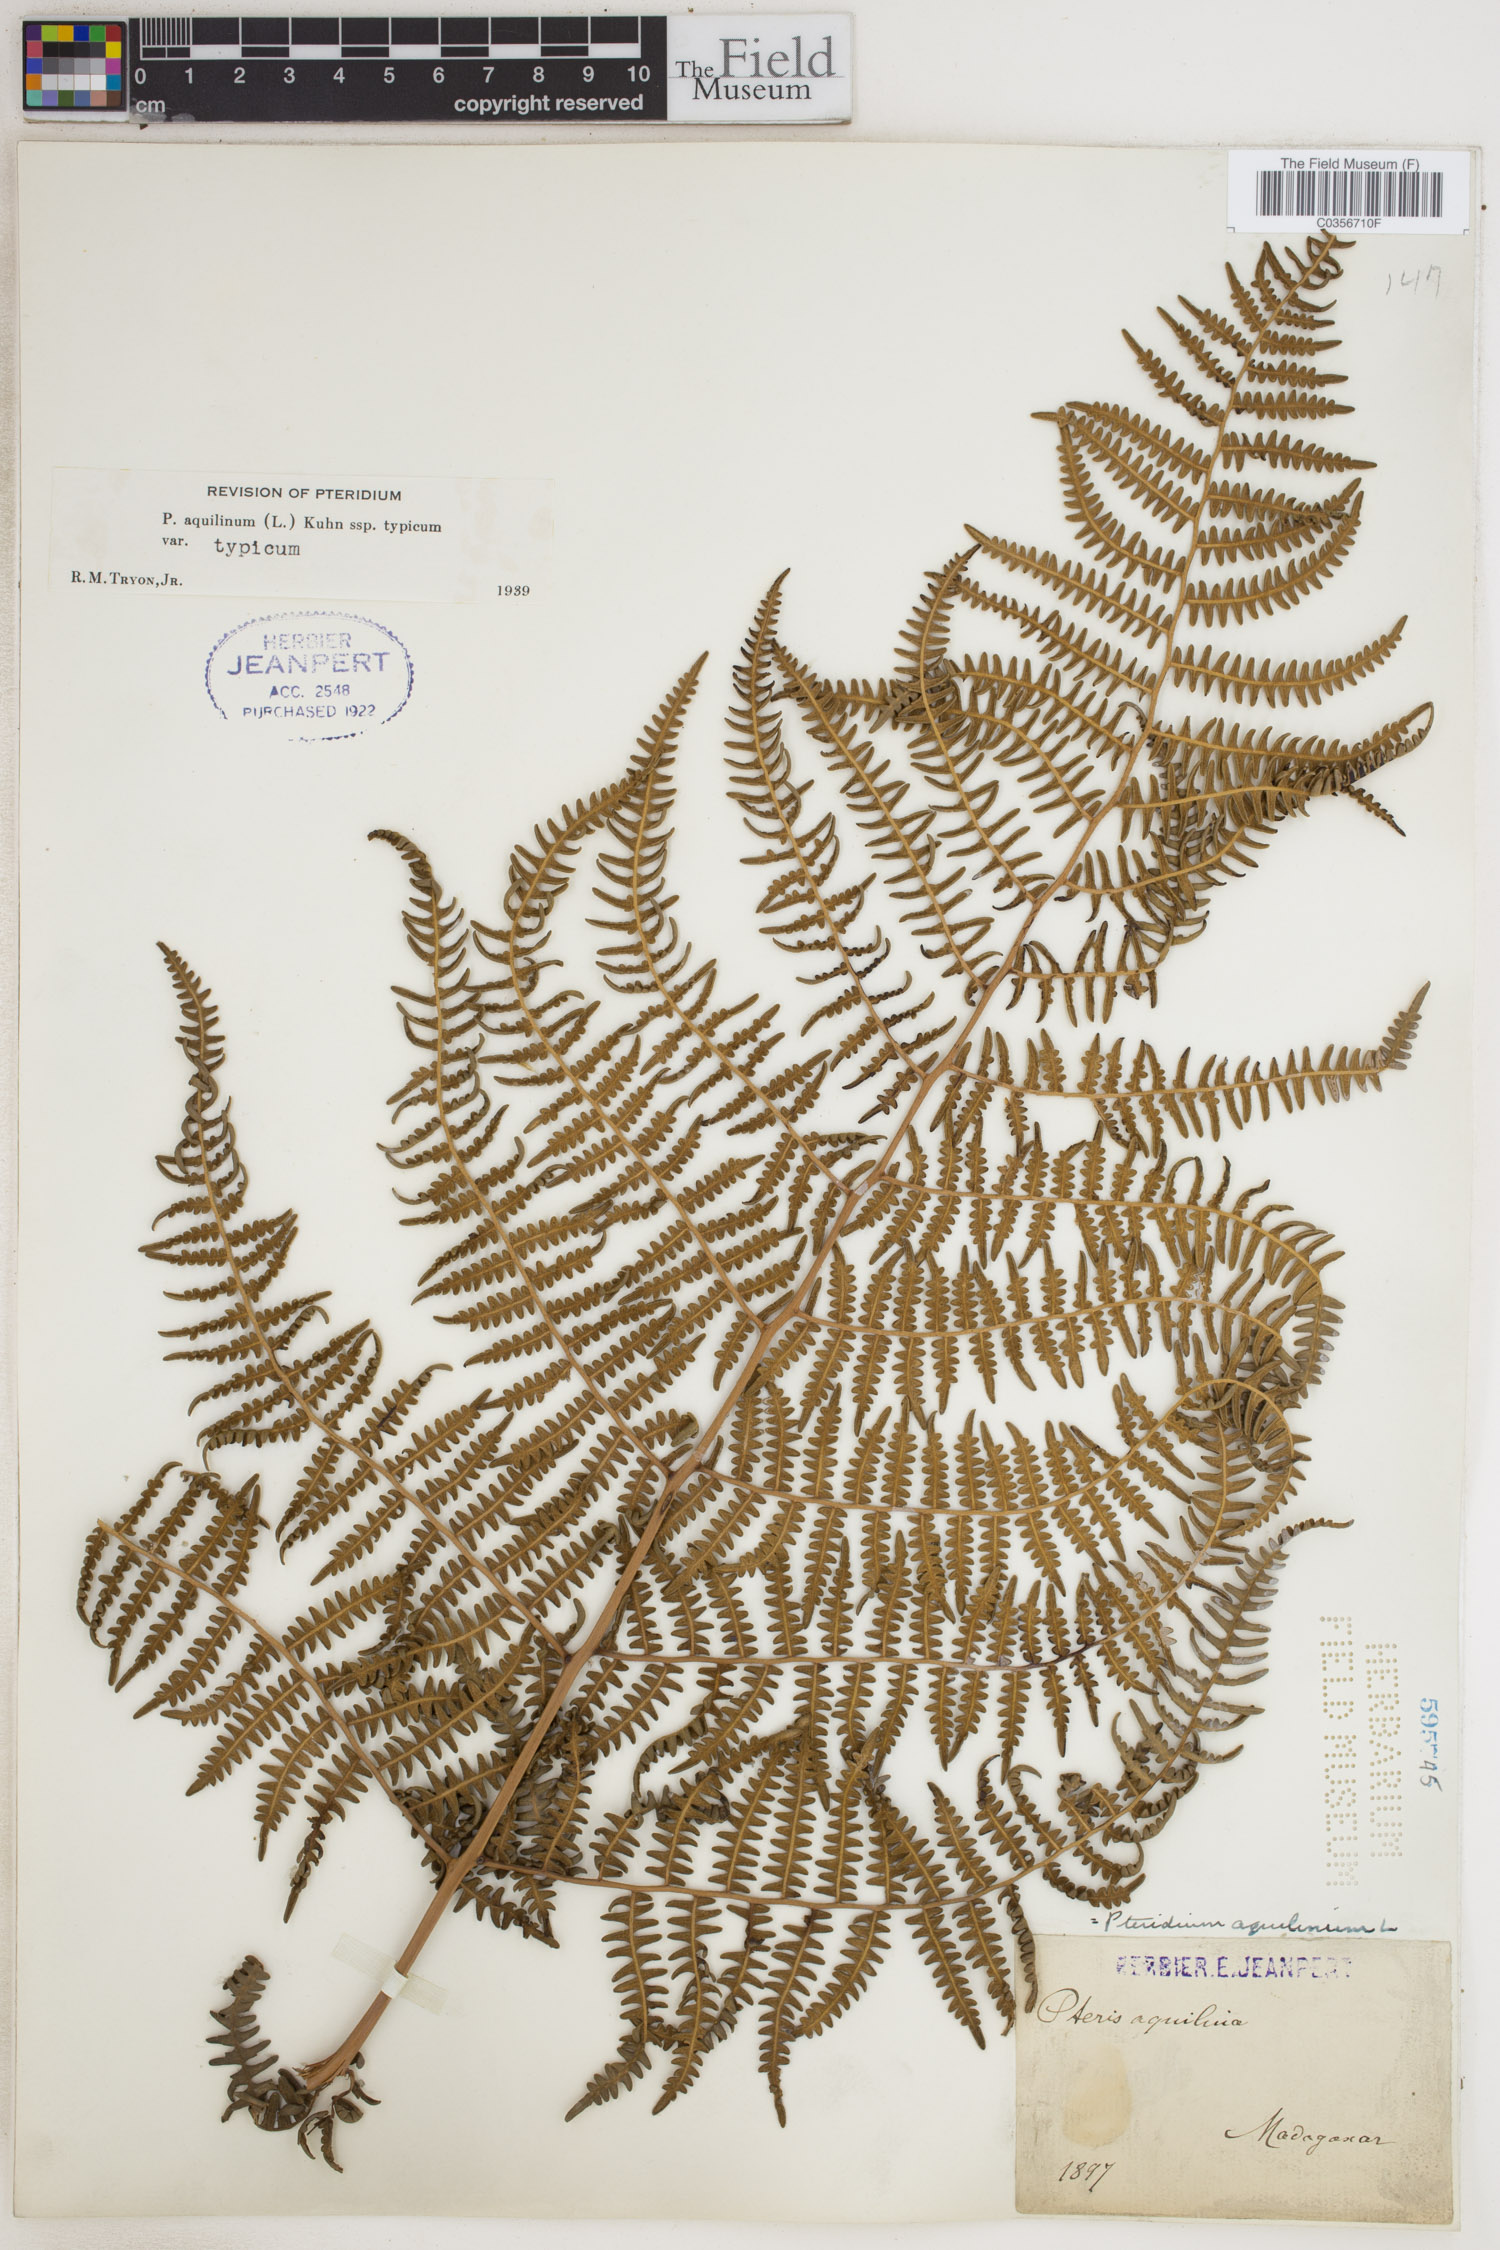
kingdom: Plantae
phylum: Tracheophyta
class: Polypodiopsida
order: Polypodiales
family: Dennstaedtiaceae
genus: Pteridium
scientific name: Pteridium aquilinum
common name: Bracken
